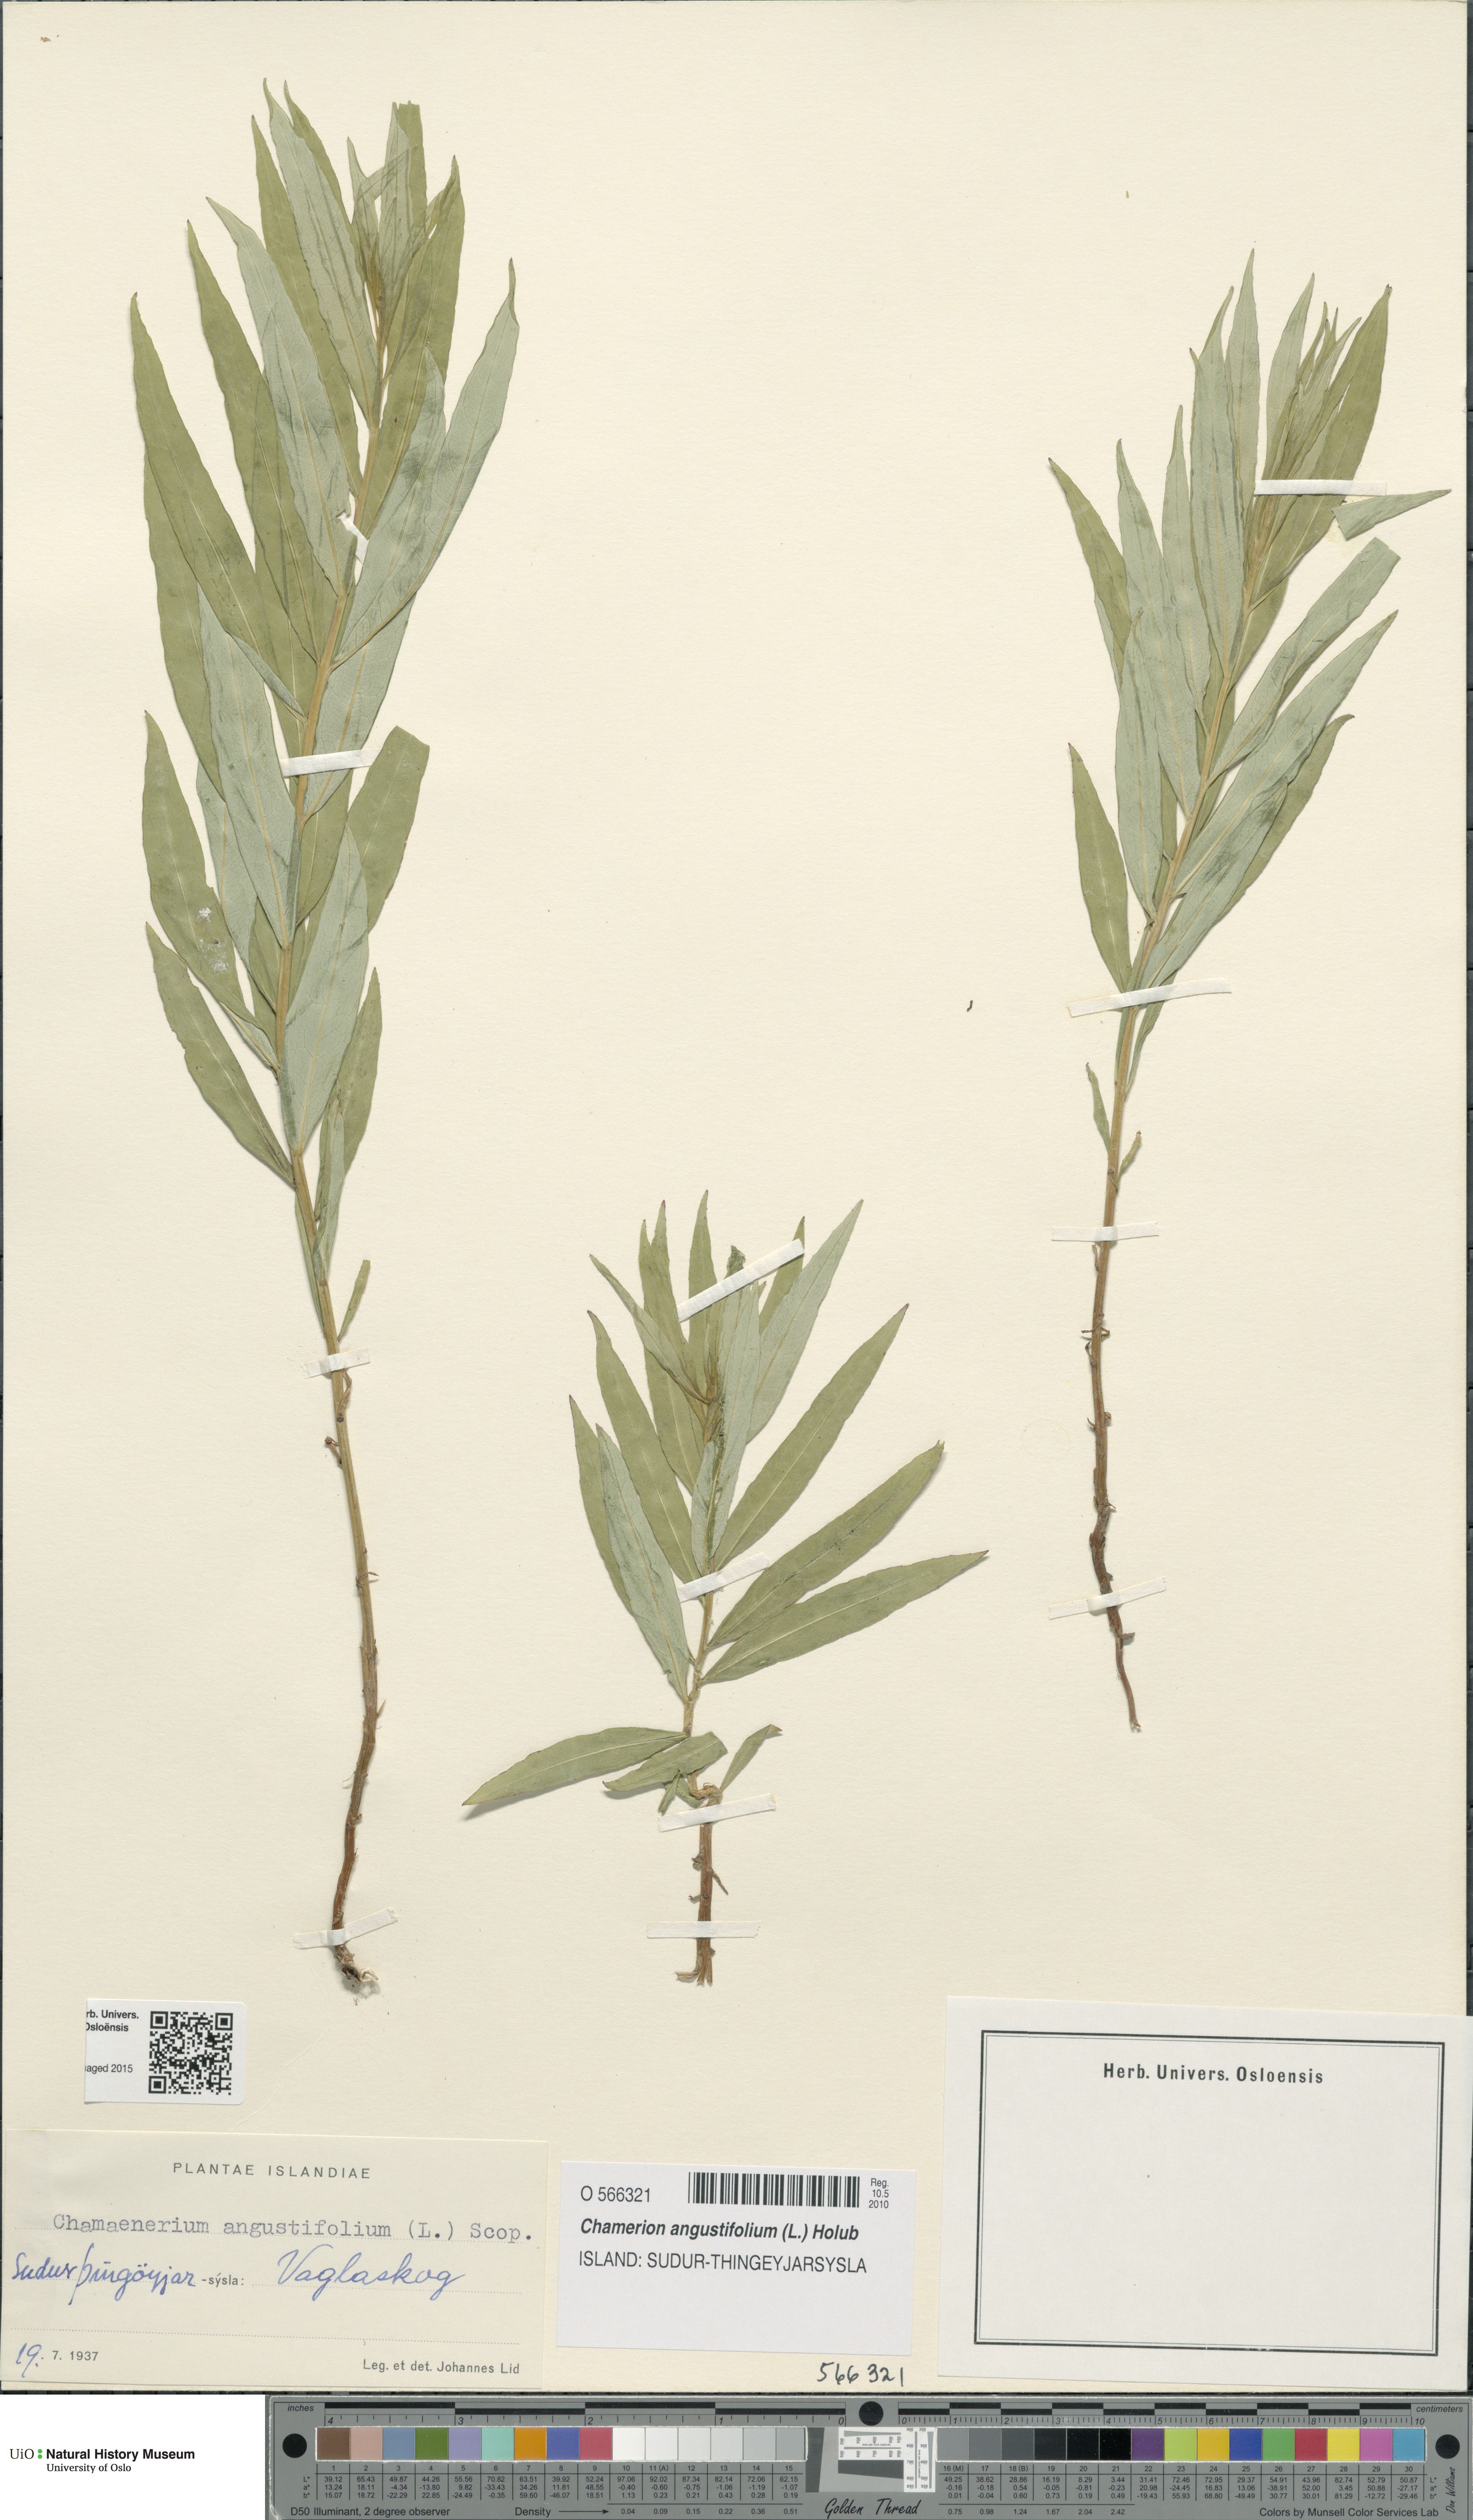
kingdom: Plantae
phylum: Tracheophyta
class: Magnoliopsida
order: Myrtales
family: Onagraceae
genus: Chamaenerion
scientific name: Chamaenerion angustifolium
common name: Fireweed
